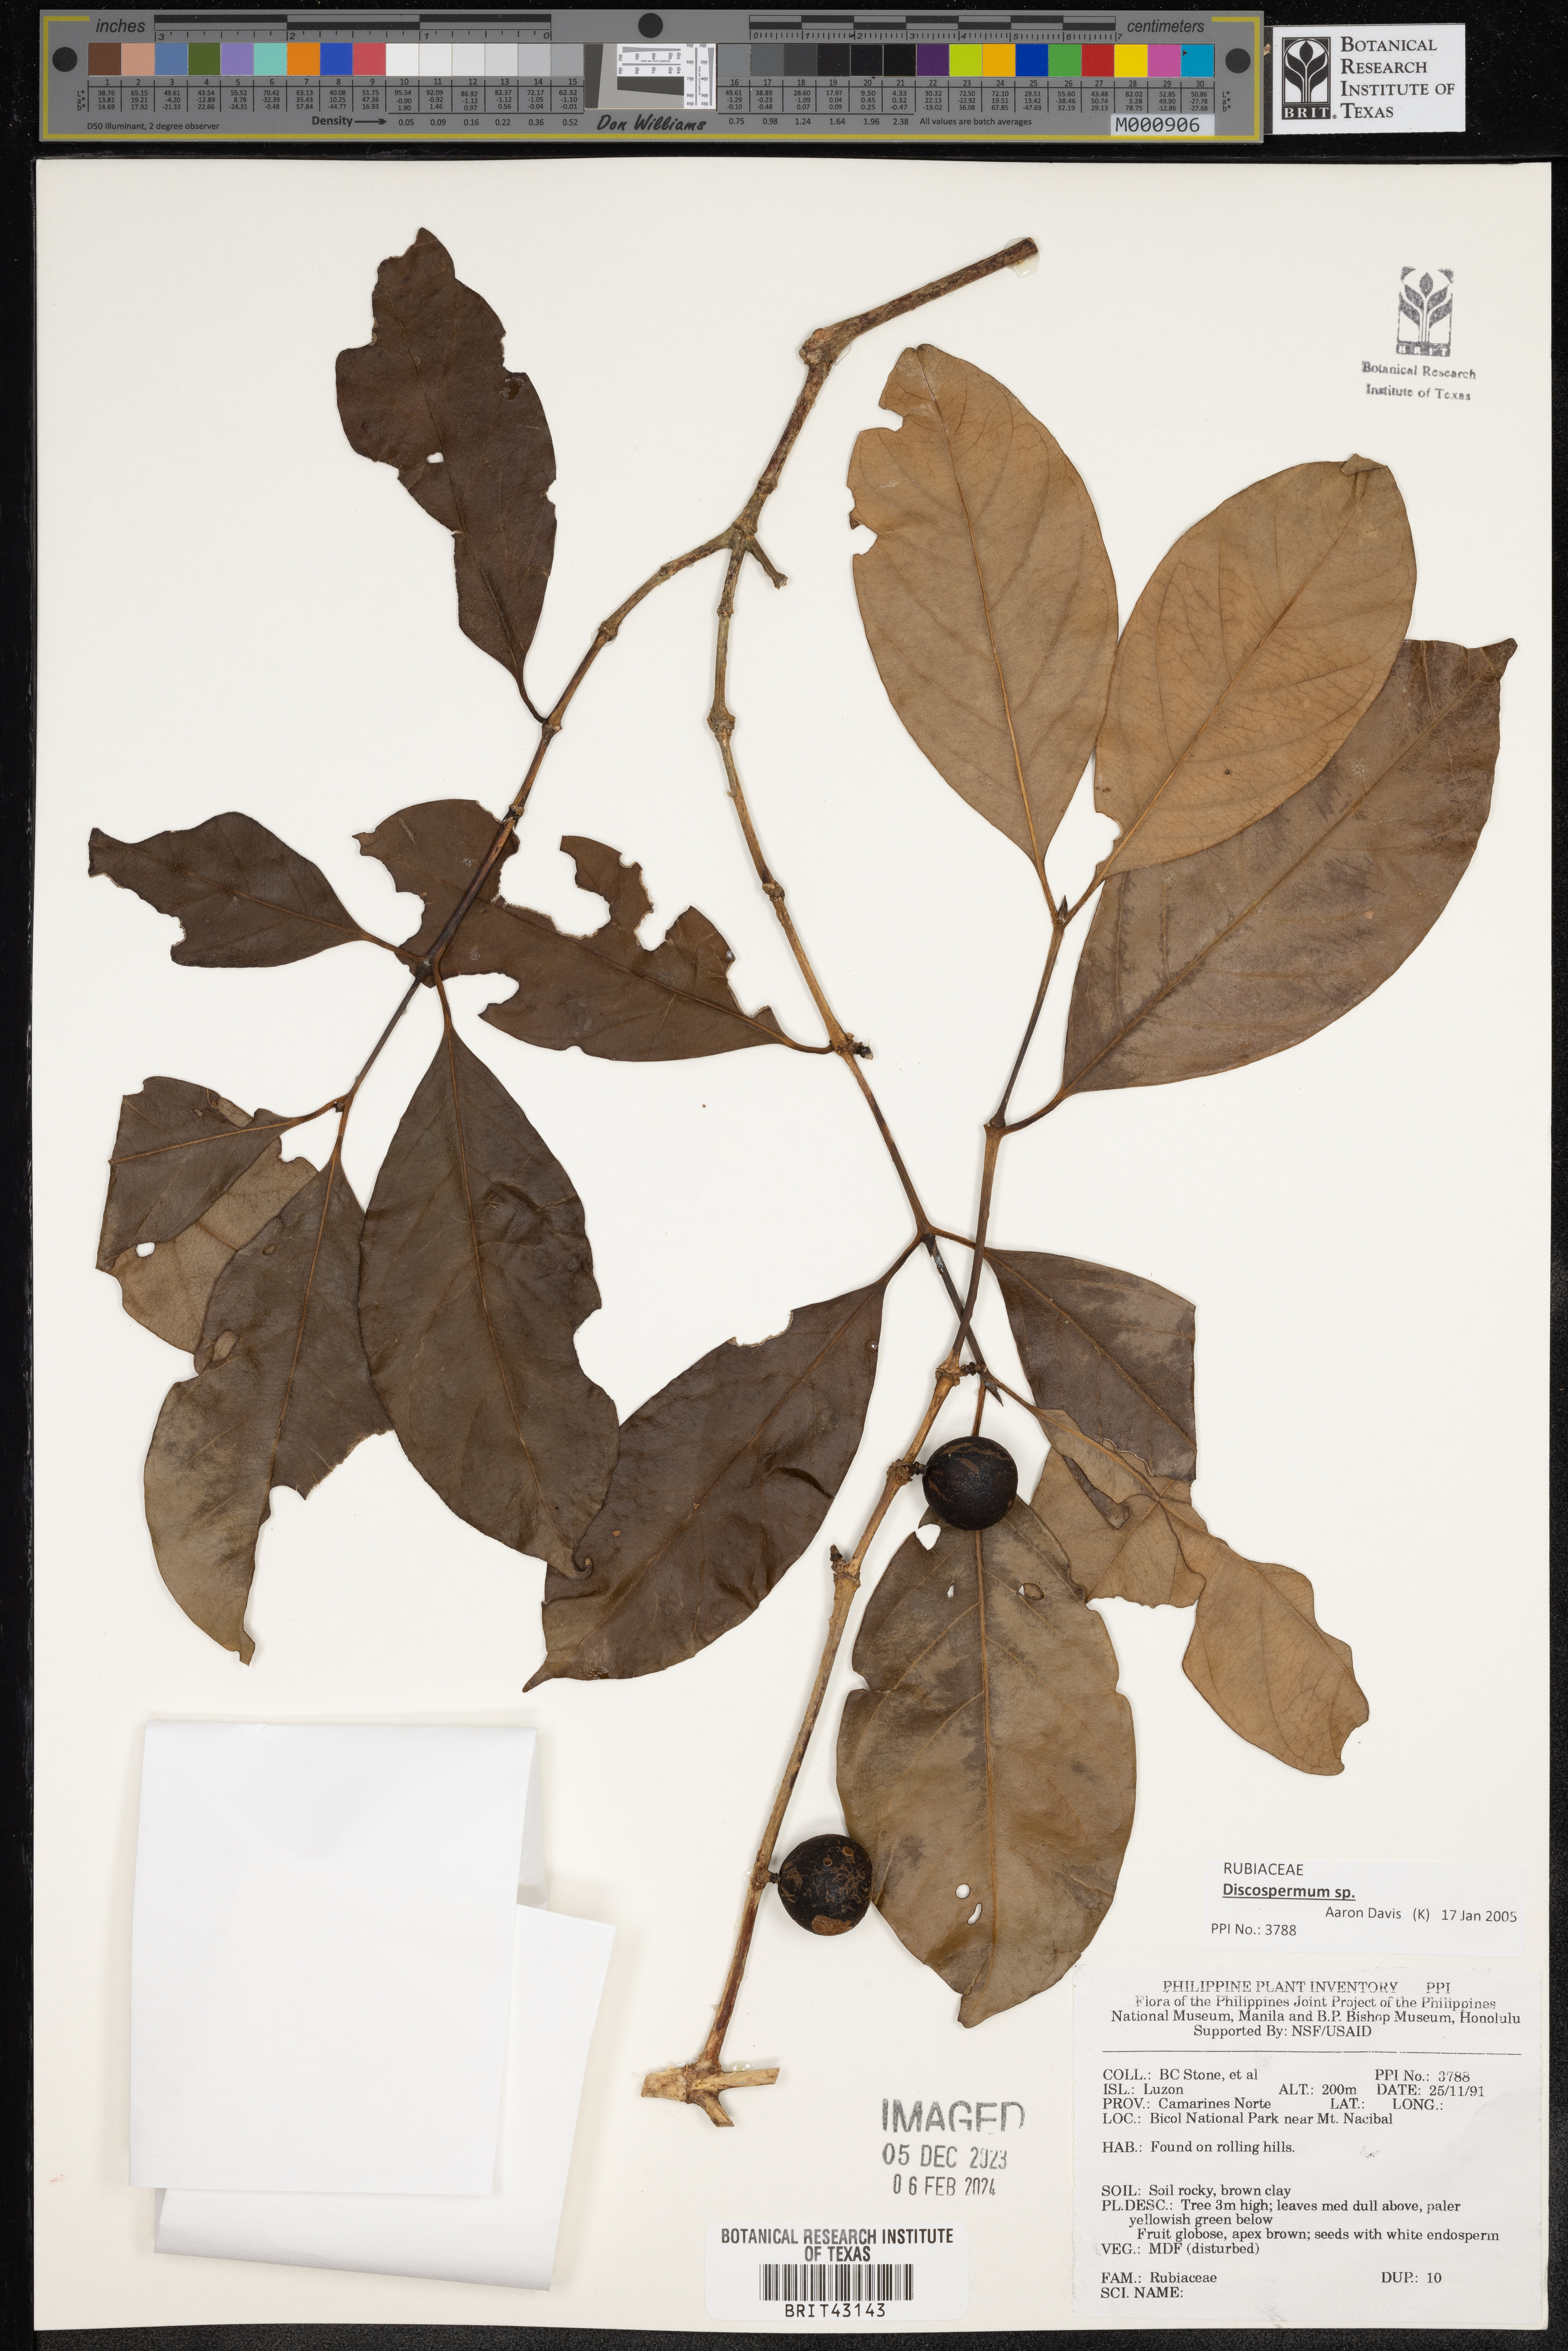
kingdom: Plantae
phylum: Tracheophyta
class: Magnoliopsida
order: Gentianales
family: Rubiaceae
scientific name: Rubiaceae
